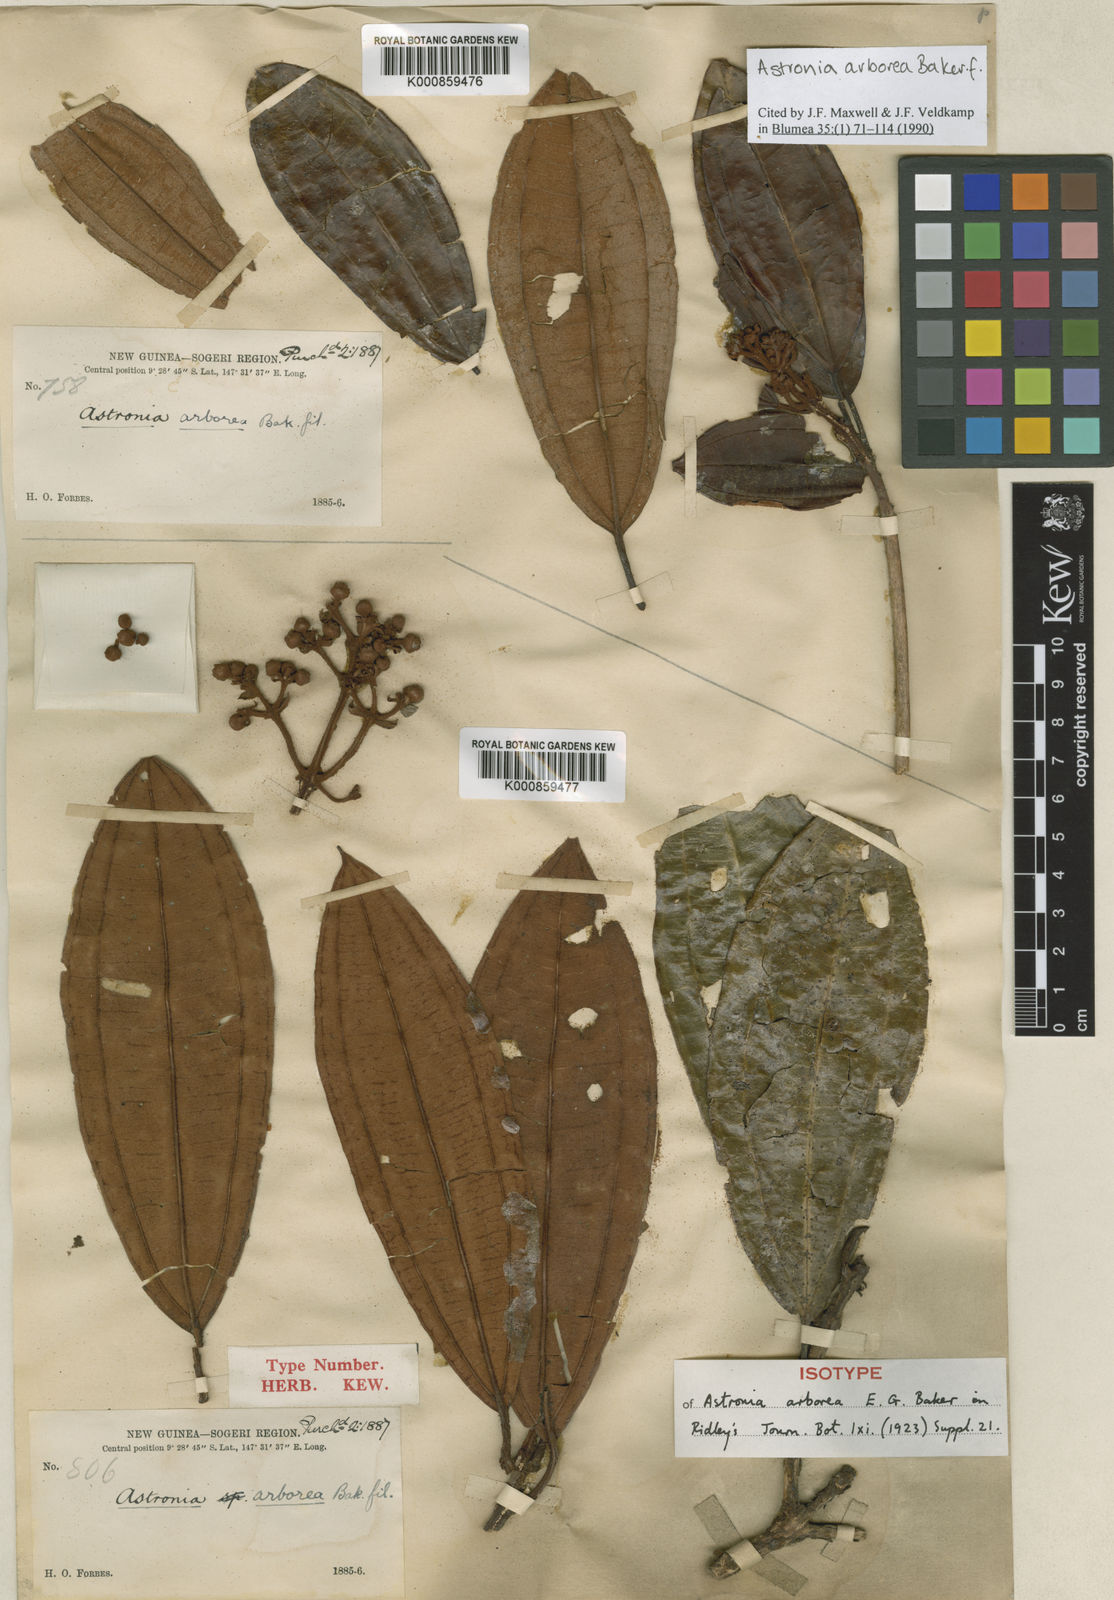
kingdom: Plantae
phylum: Tracheophyta
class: Magnoliopsida
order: Myrtales
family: Melastomataceae
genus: Astronia
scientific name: Astronia arborea
